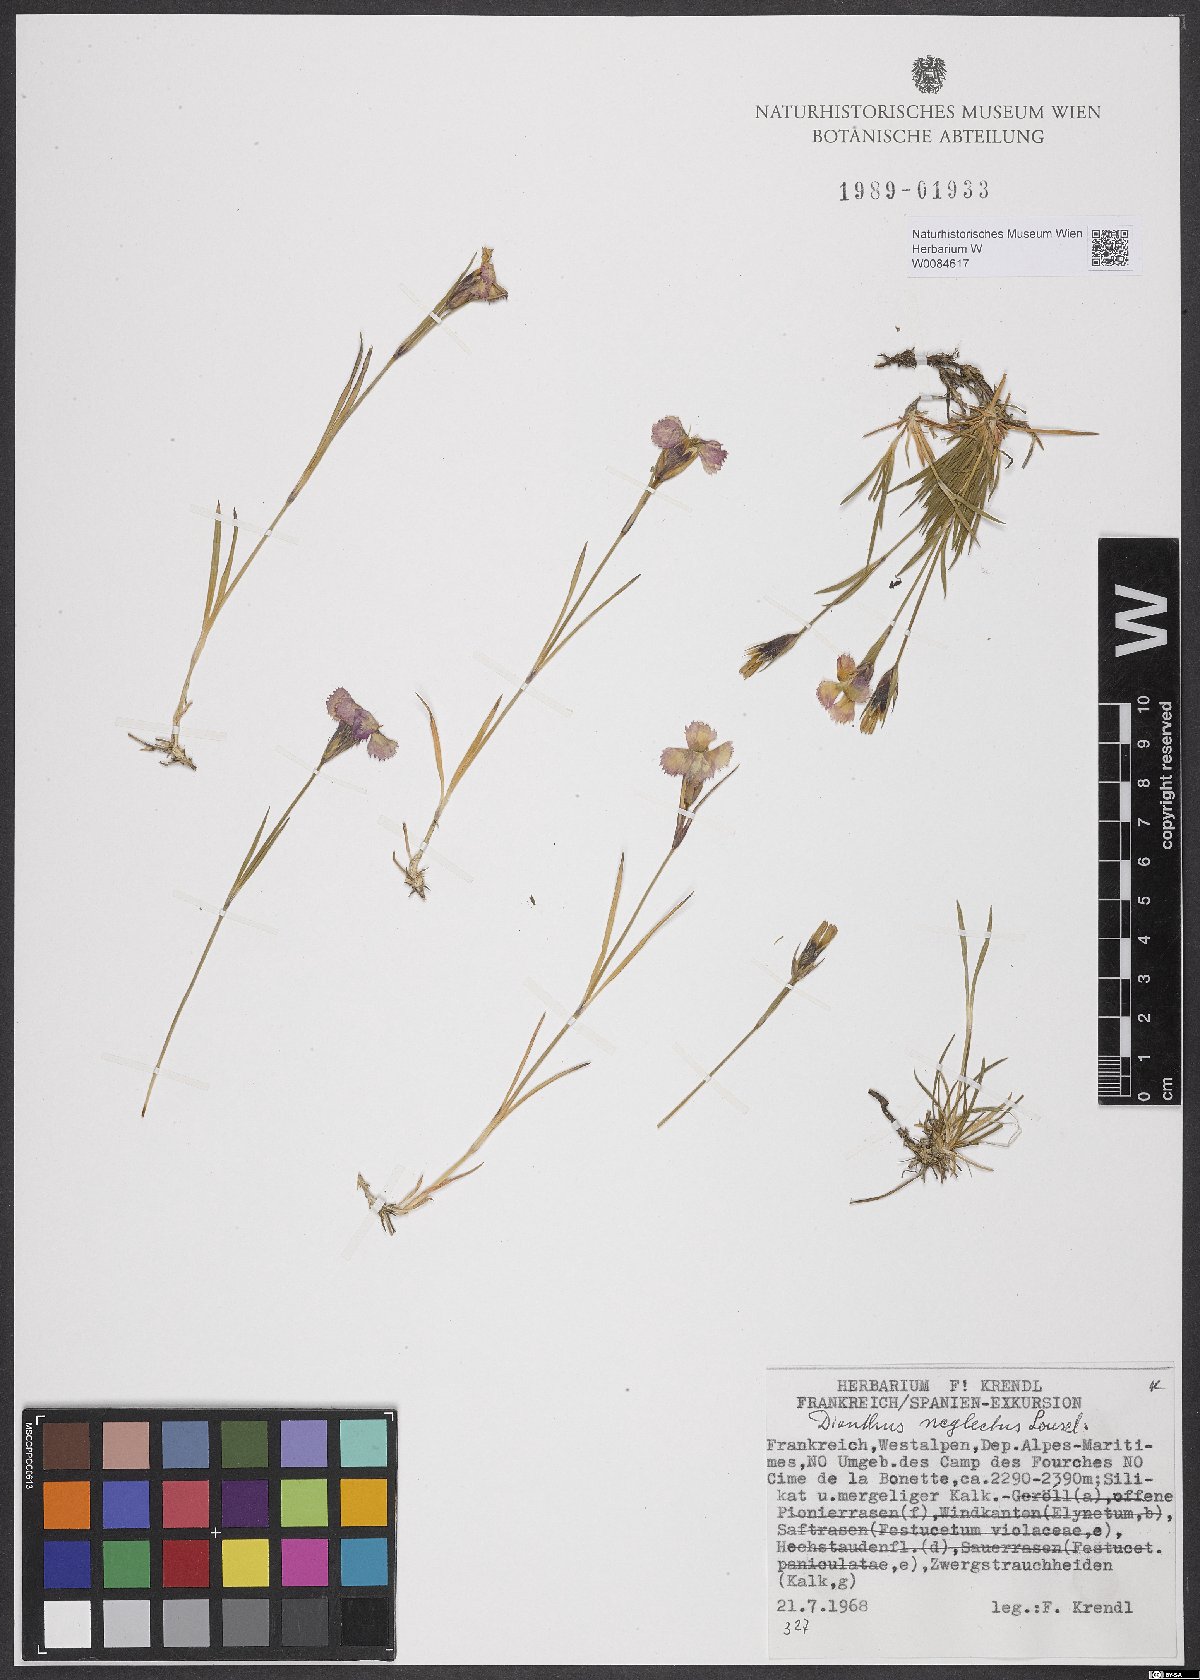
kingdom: Plantae
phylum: Tracheophyta
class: Magnoliopsida
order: Caryophyllales
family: Caryophyllaceae
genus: Dianthus
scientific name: Dianthus seguieri
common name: Ragged pink
